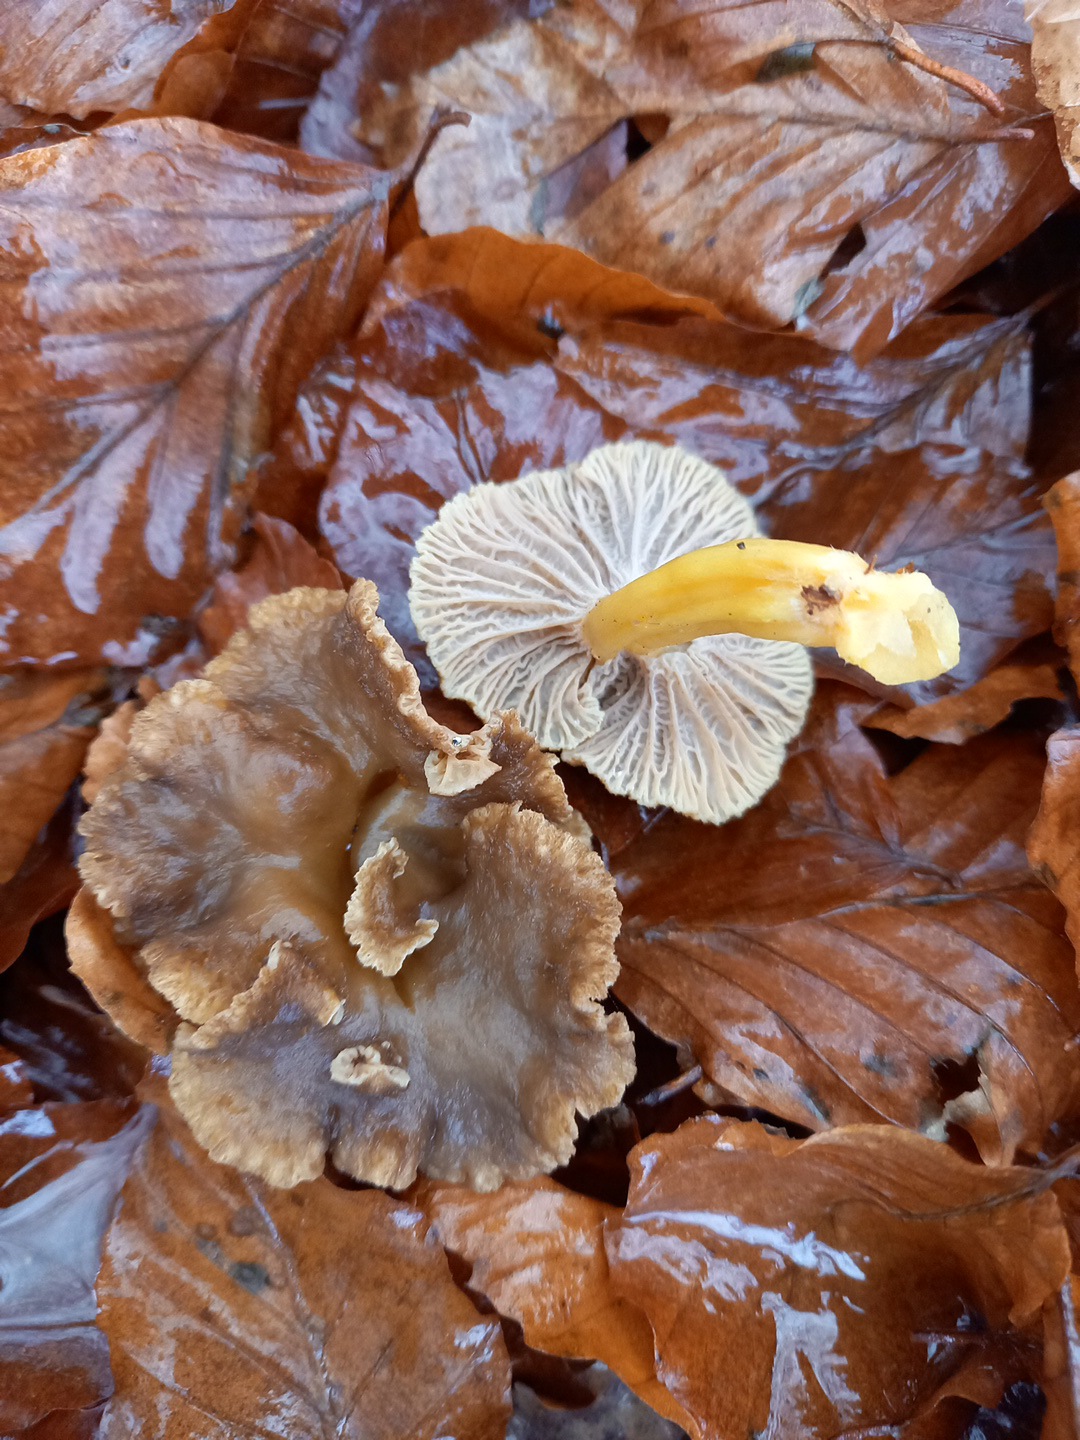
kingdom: Fungi
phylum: Basidiomycota
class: Agaricomycetes
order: Cantharellales
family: Hydnaceae
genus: Craterellus
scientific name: Craterellus tubaeformis
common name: tragt-kantarel
